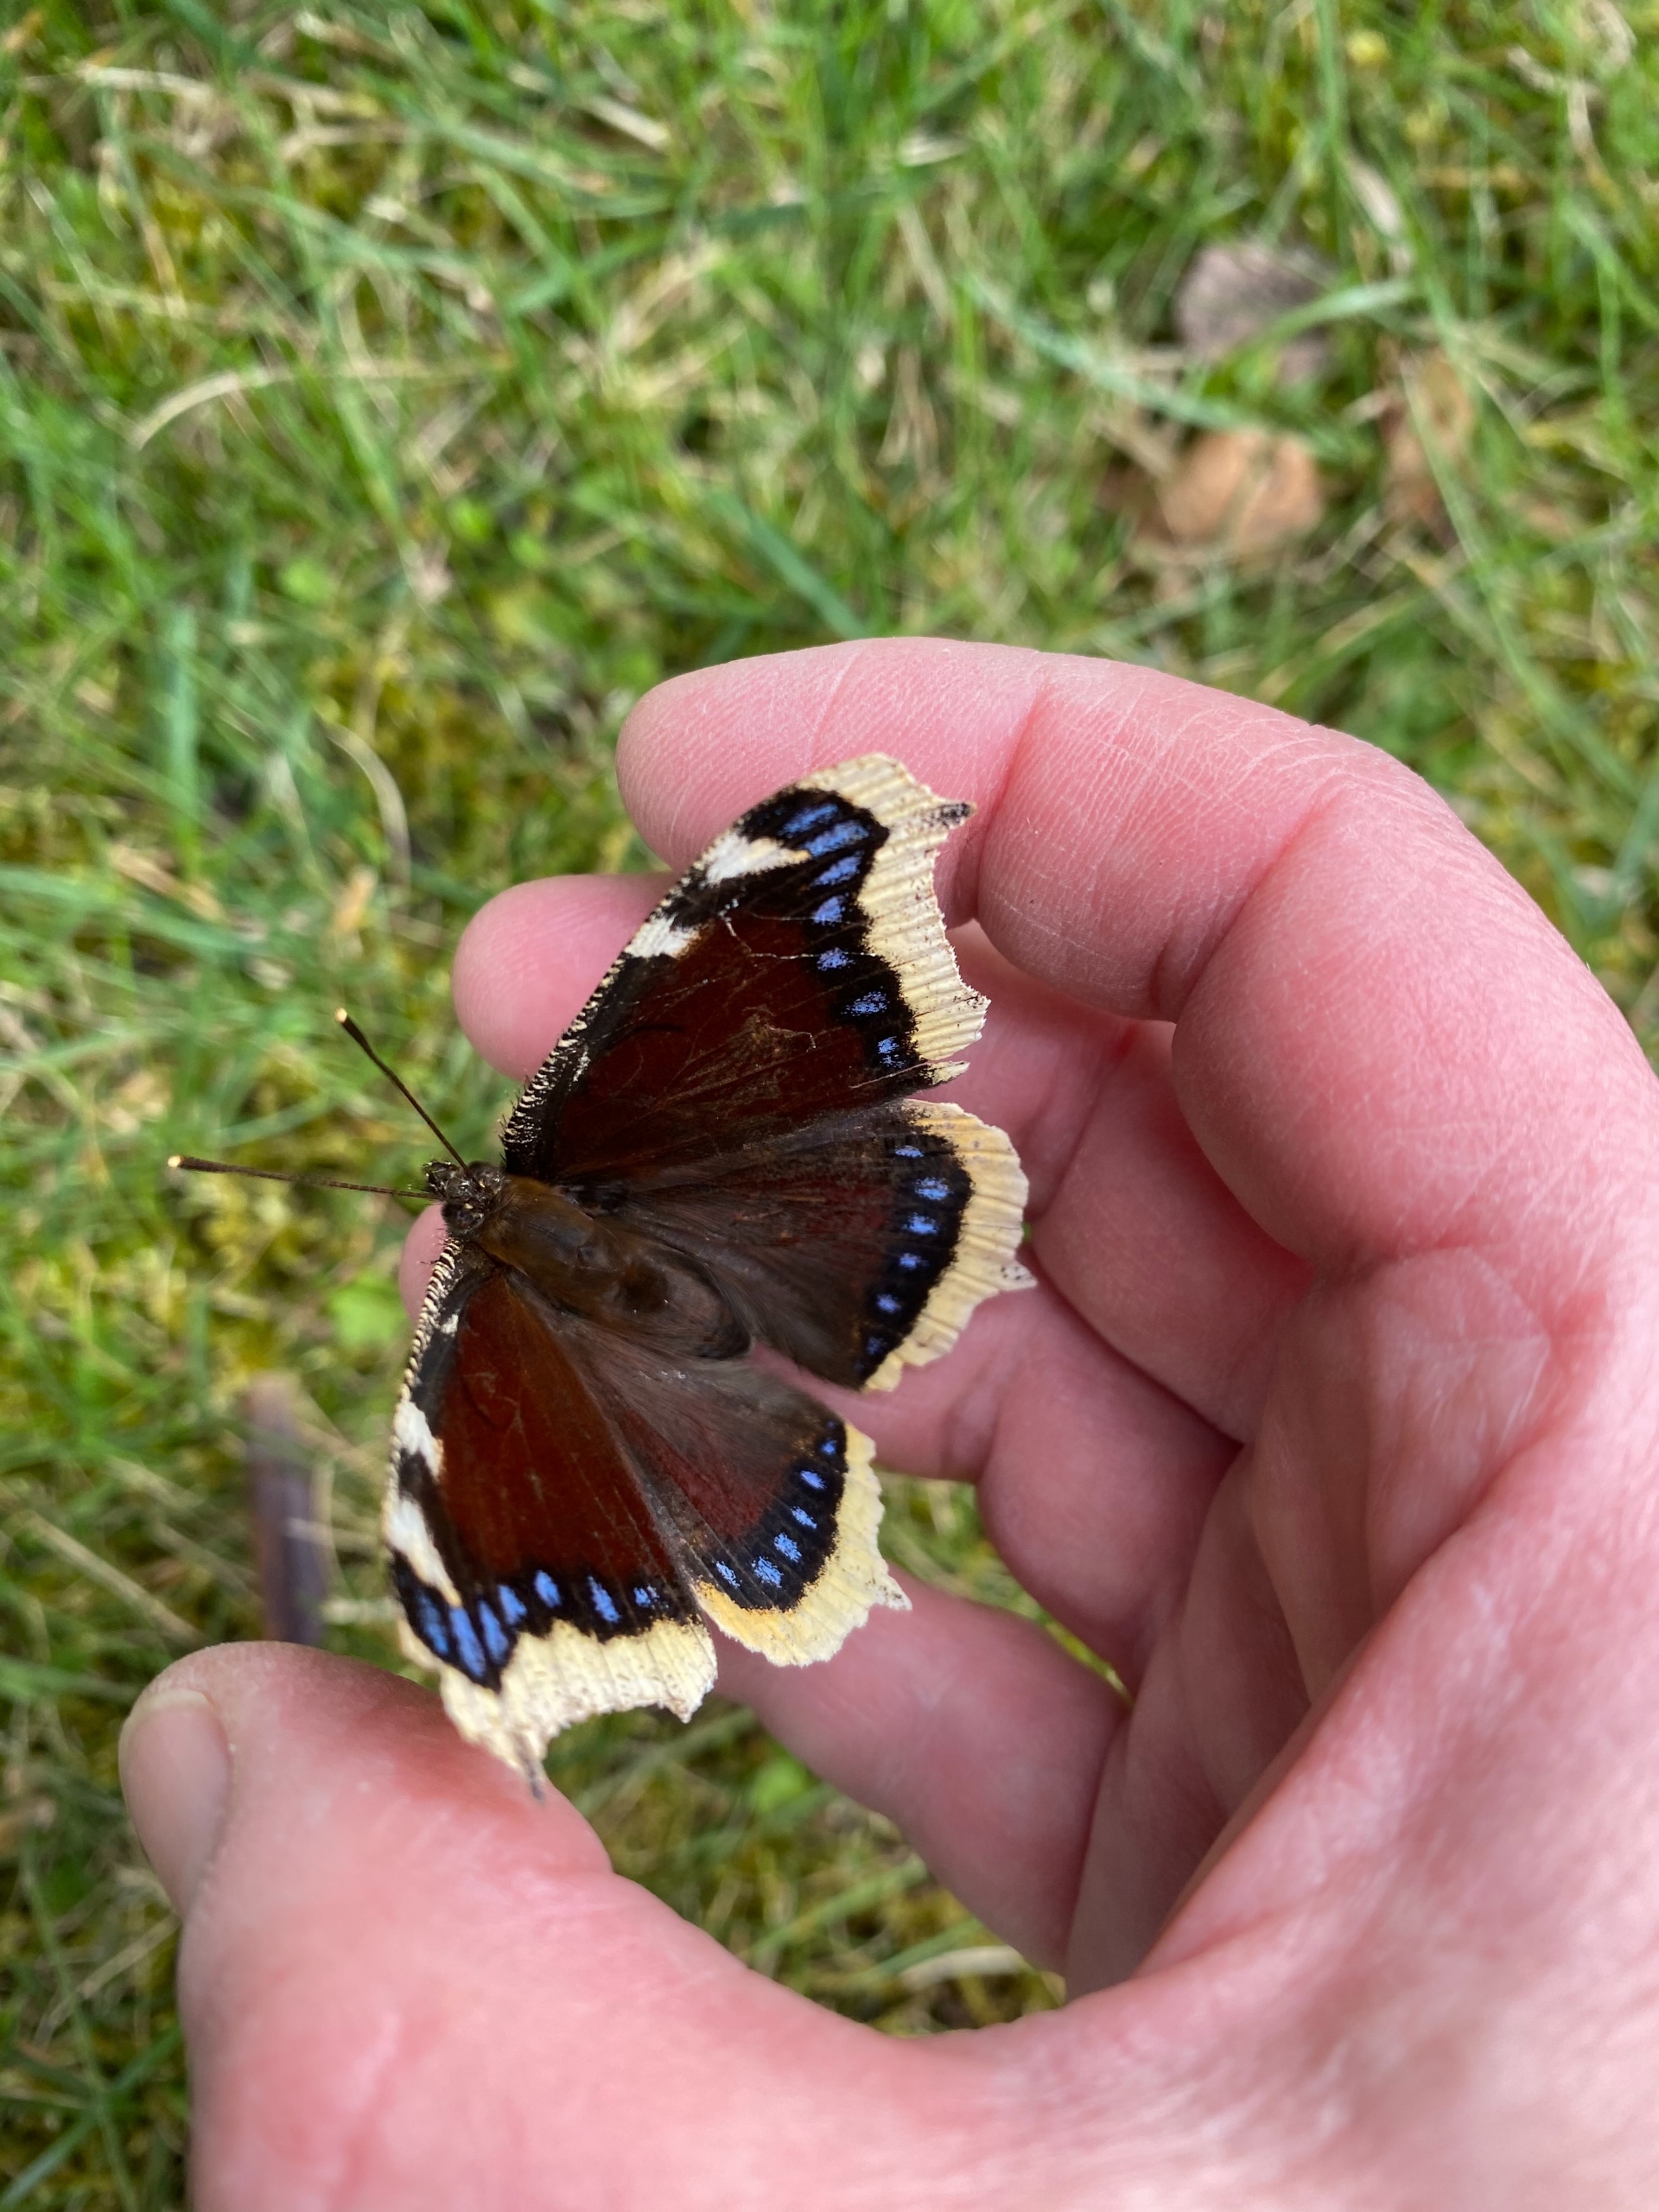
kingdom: Animalia
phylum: Arthropoda
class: Insecta
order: Lepidoptera
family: Nymphalidae
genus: Nymphalis
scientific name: Nymphalis antiopa
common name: Sørgekåbe
